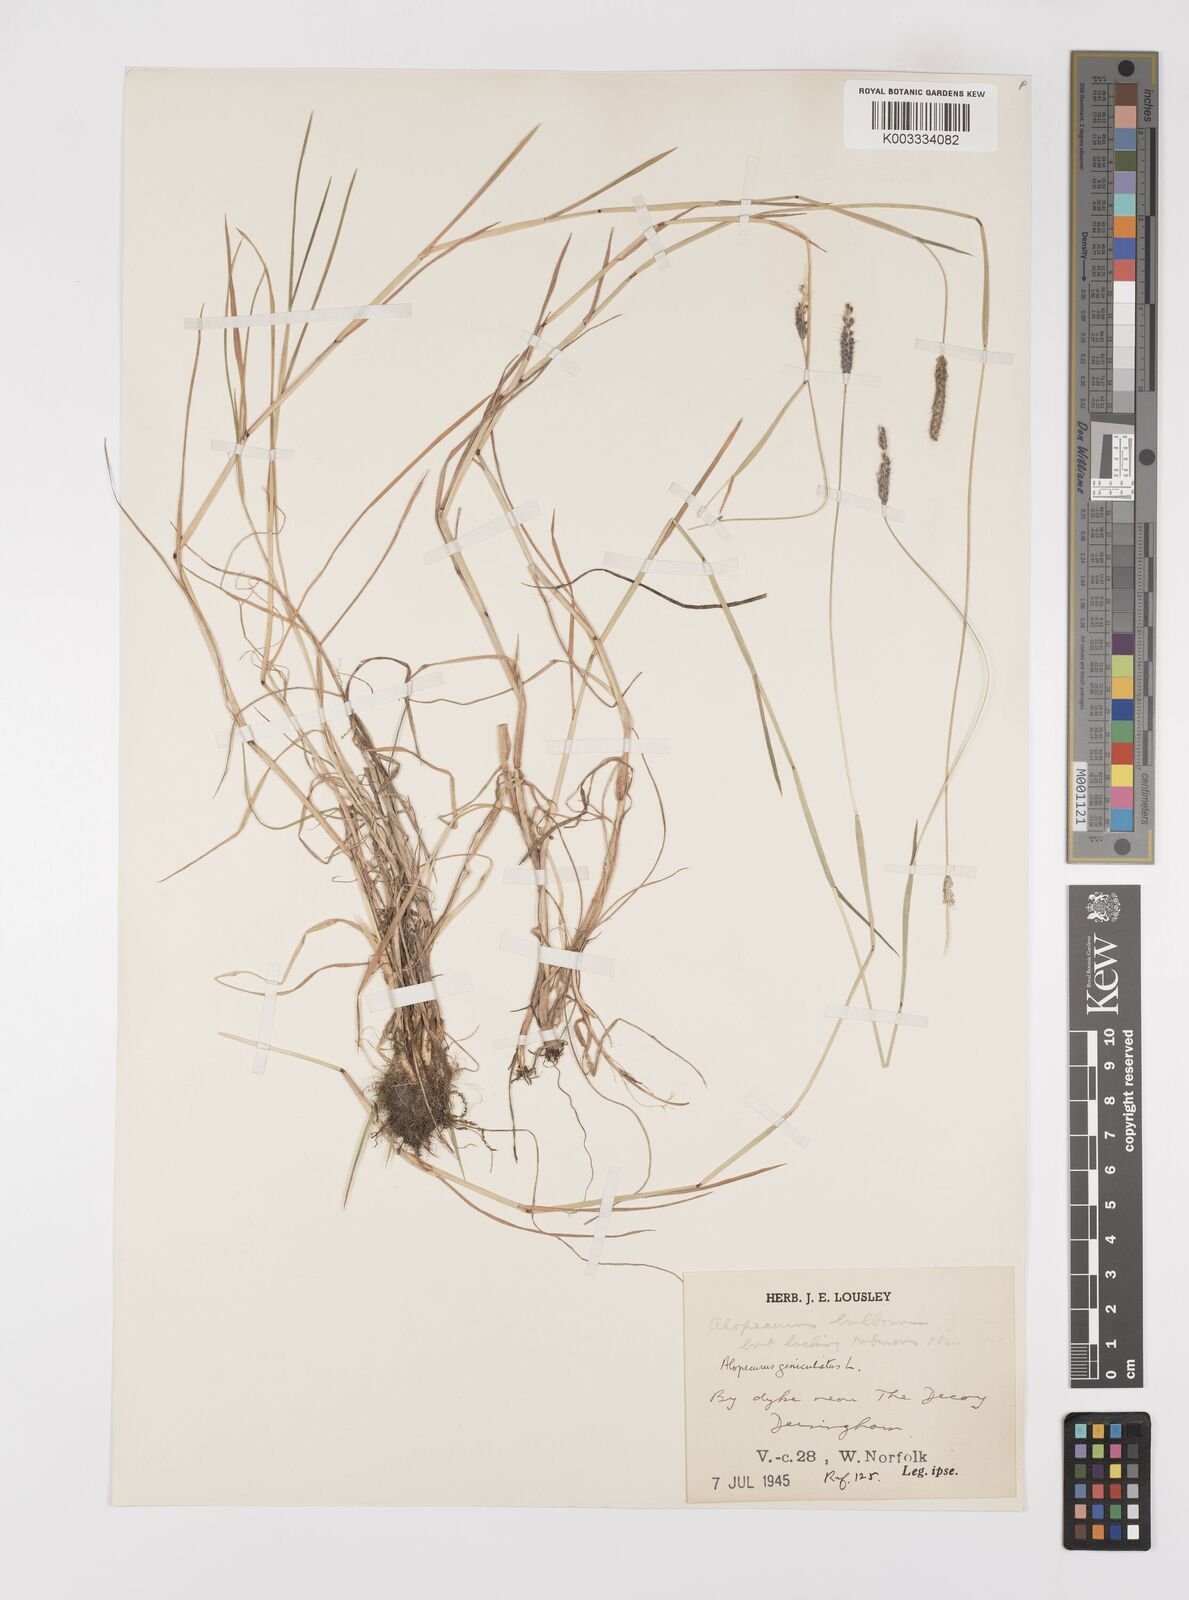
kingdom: Plantae
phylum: Tracheophyta
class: Liliopsida
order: Poales
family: Poaceae
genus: Alopecurus
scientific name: Alopecurus geniculatus
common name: Water foxtail
